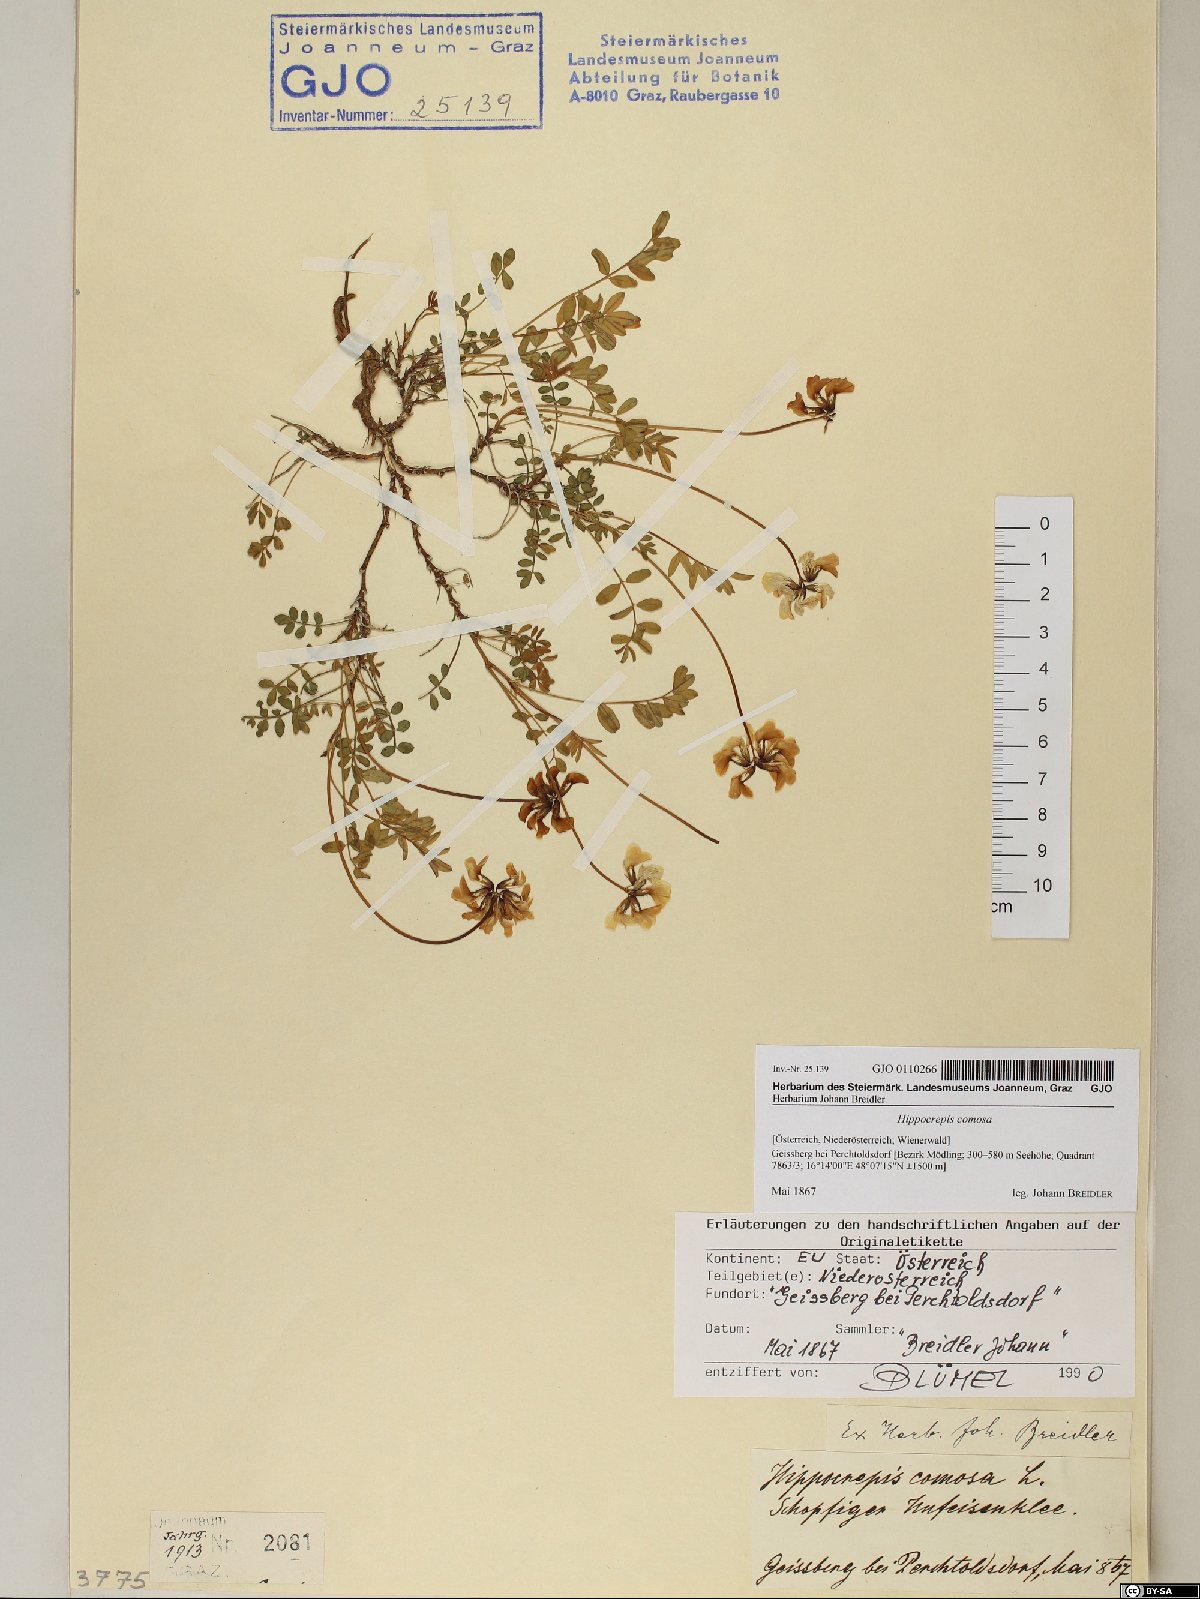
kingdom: Plantae
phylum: Tracheophyta
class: Magnoliopsida
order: Fabales
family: Fabaceae
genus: Hippocrepis
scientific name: Hippocrepis comosa
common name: Horseshoe vetch
